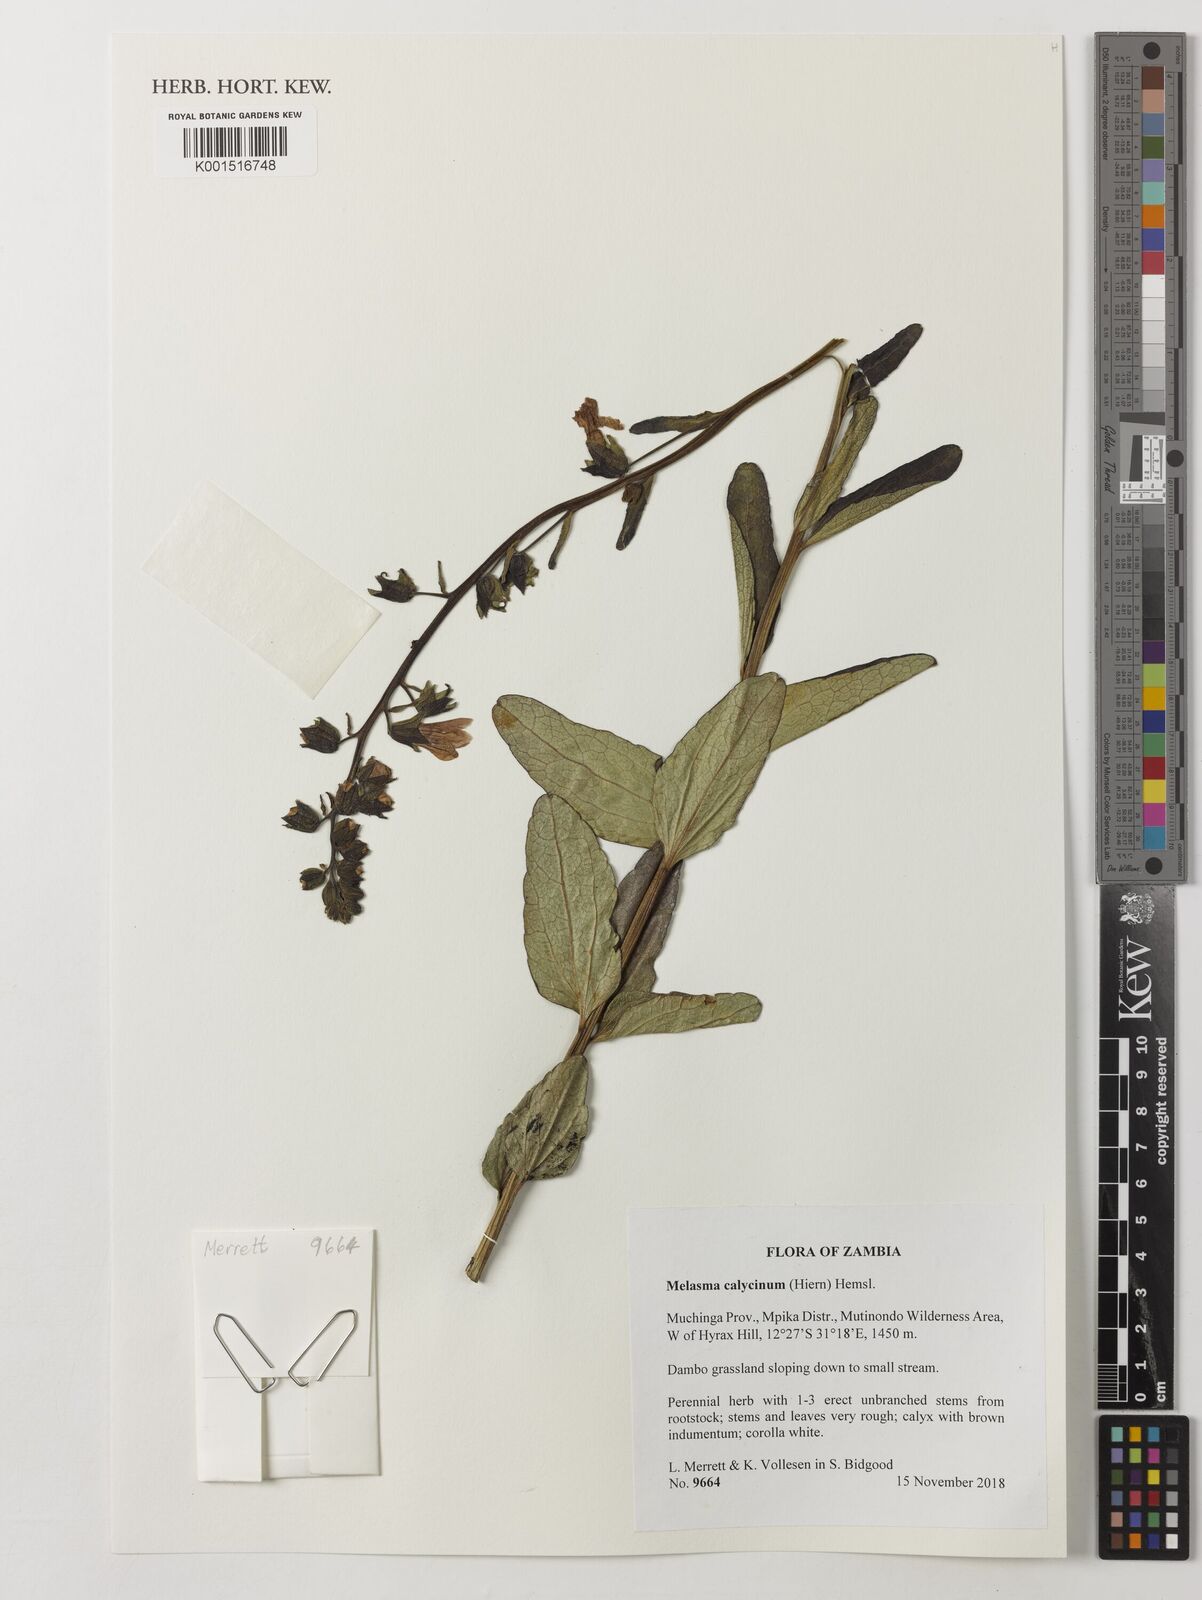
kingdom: Plantae
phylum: Tracheophyta
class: Magnoliopsida
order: Lamiales
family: Orobanchaceae
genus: Melasma
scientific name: Melasma
